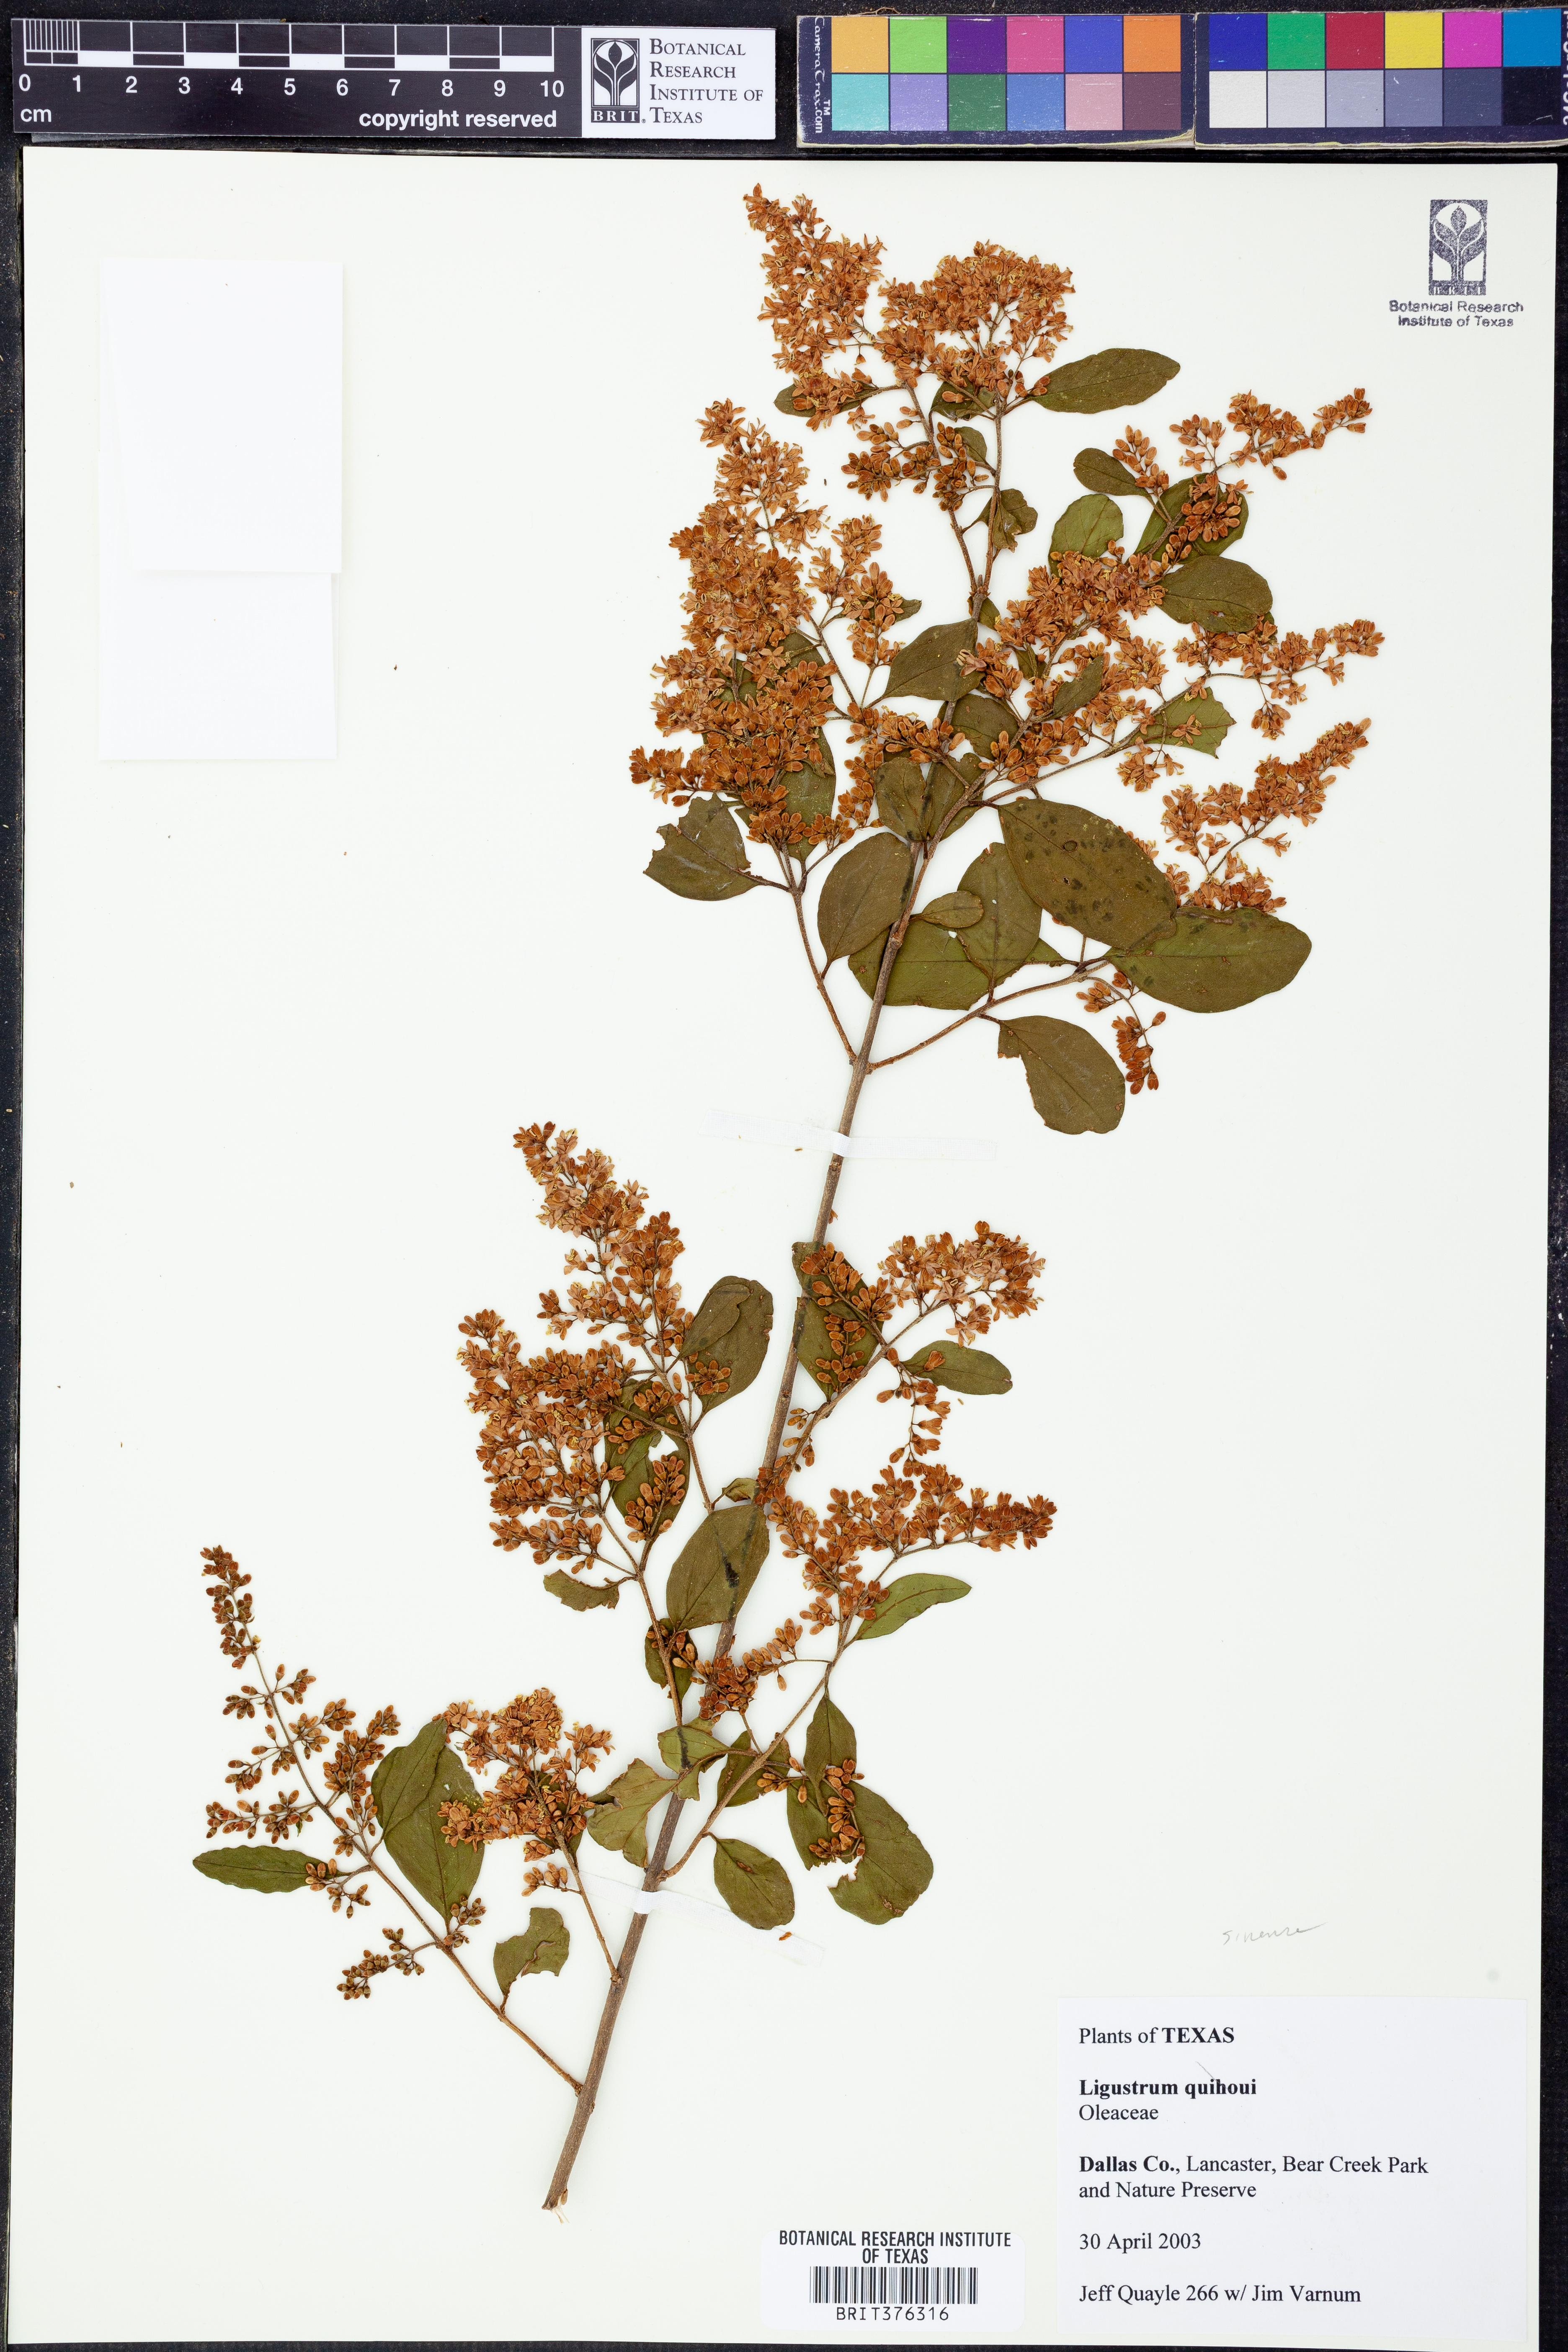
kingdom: Plantae
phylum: Tracheophyta
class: Magnoliopsida
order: Lamiales
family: Oleaceae
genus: Ligustrum
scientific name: Ligustrum sinense
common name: Chinese privet
